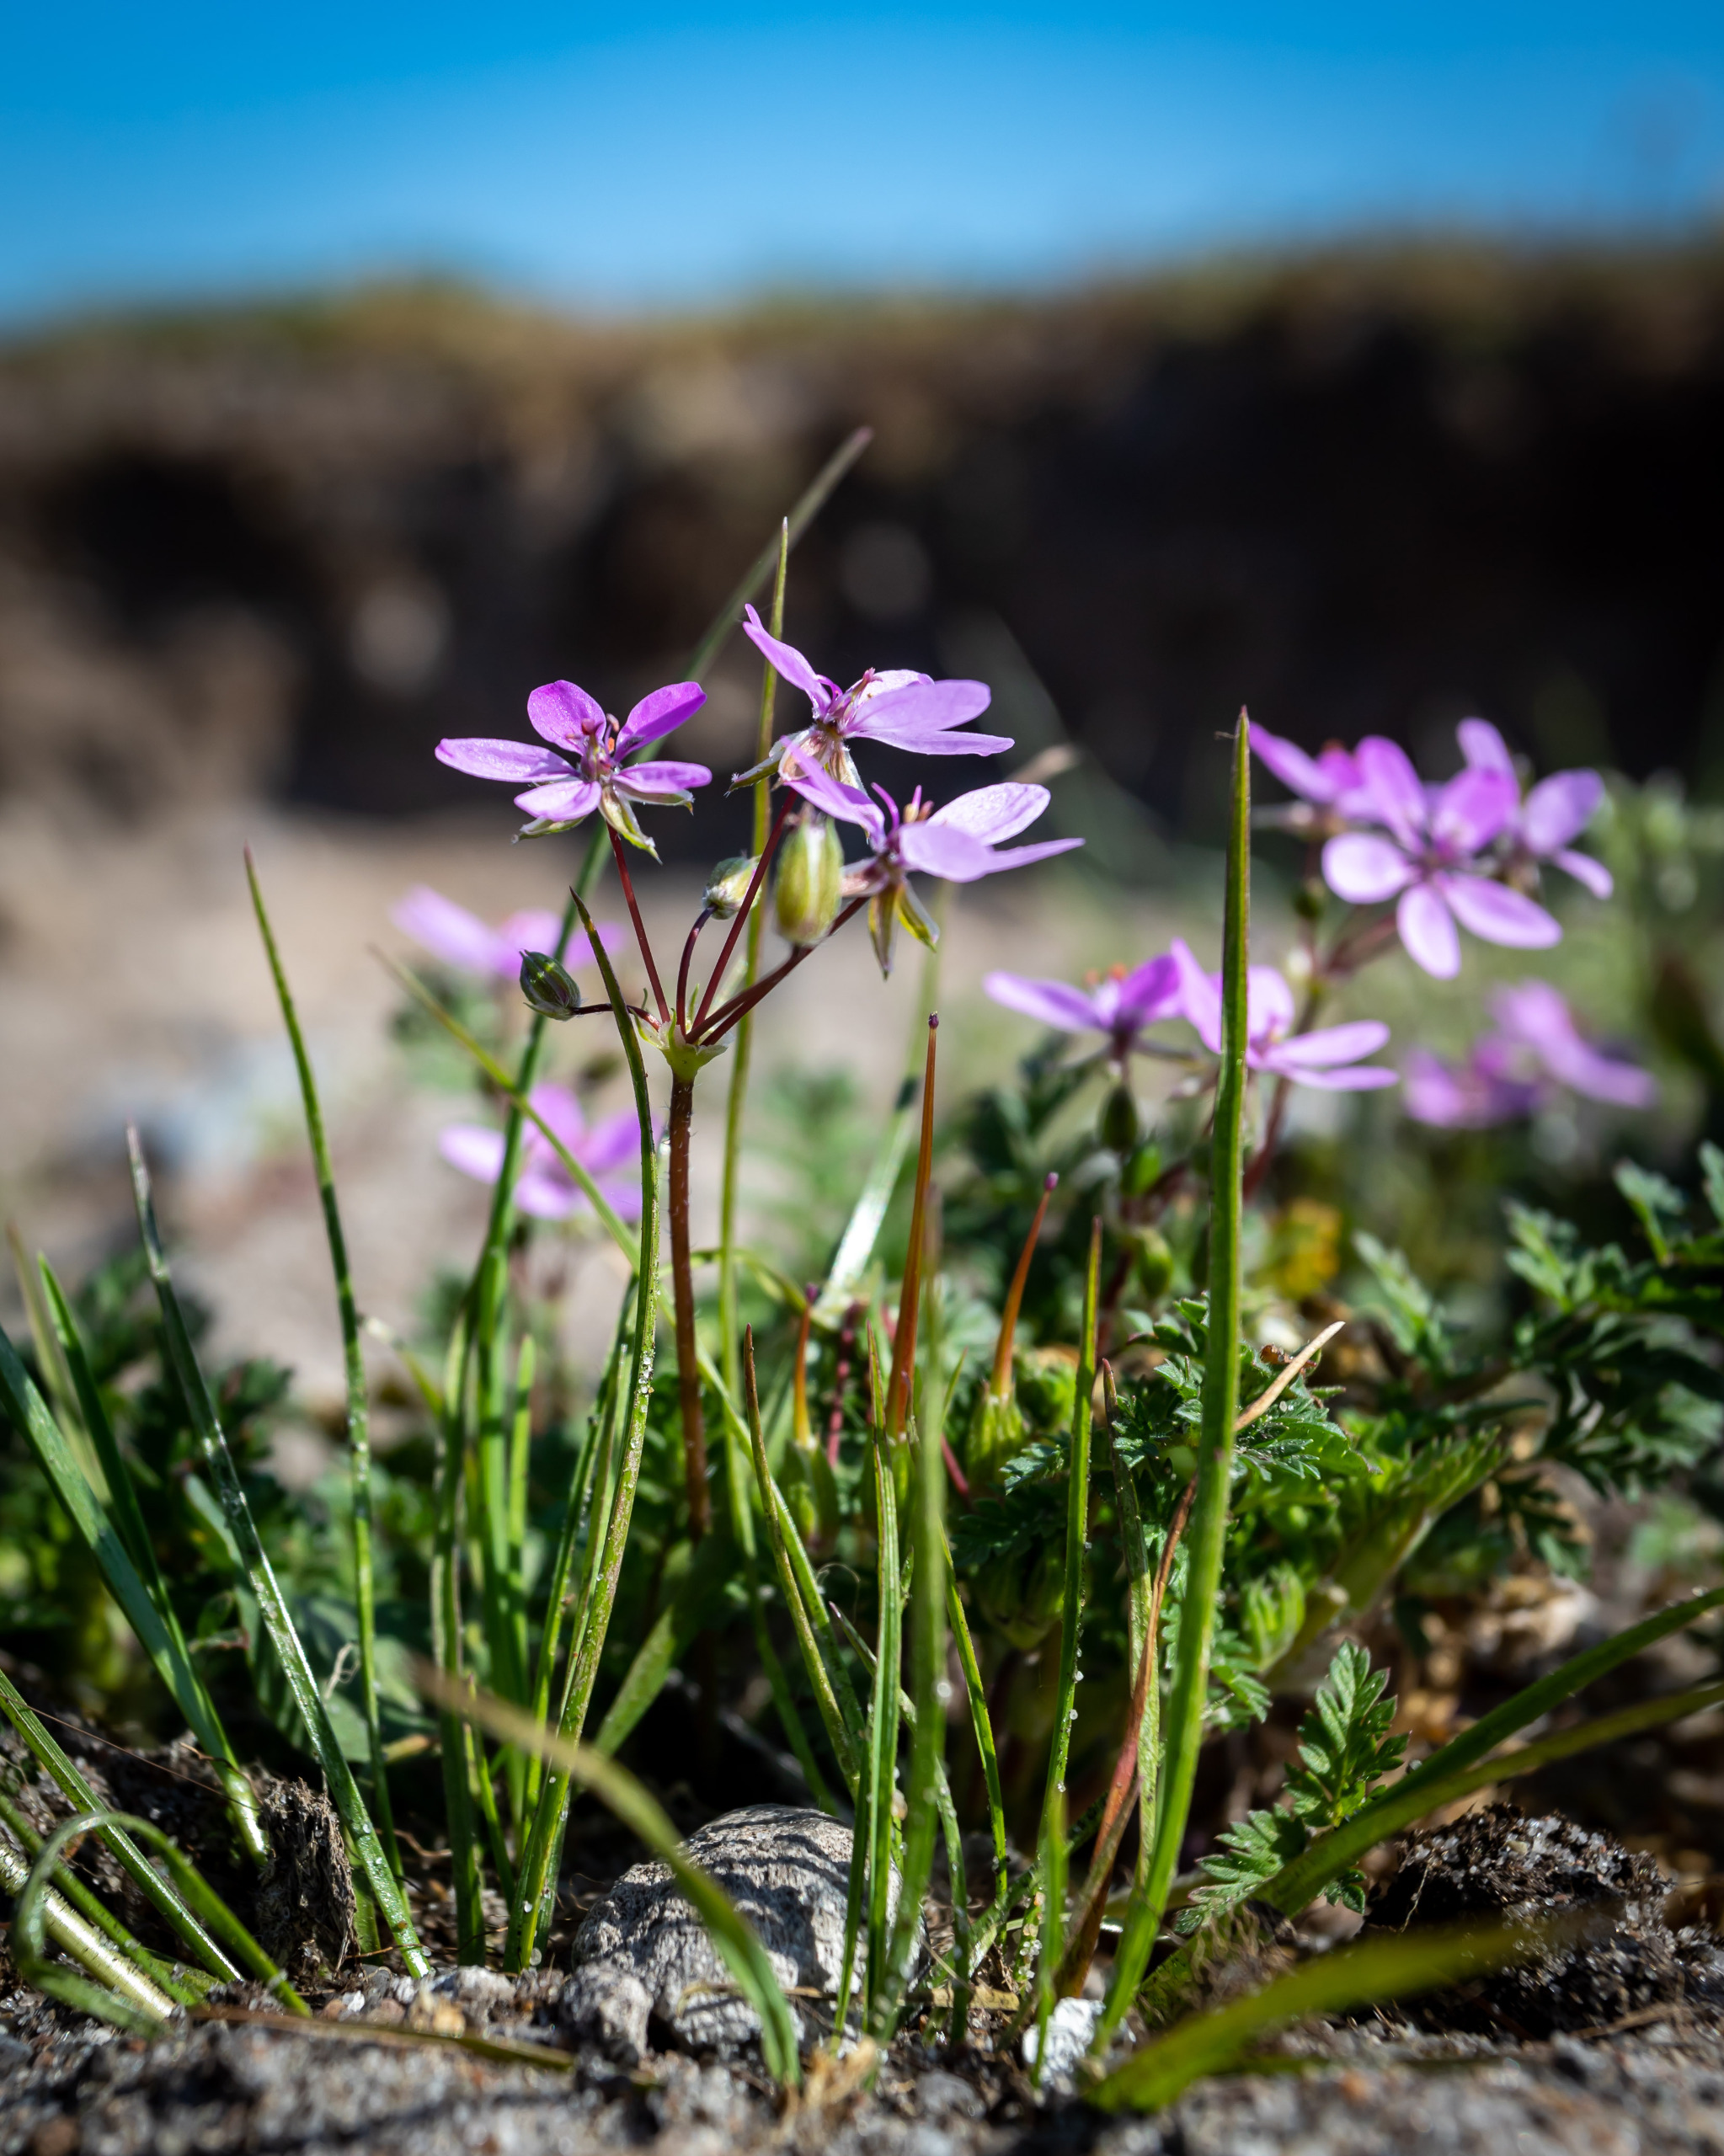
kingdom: Plantae
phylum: Tracheophyta
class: Magnoliopsida
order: Geraniales
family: Geraniaceae
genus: Erodium
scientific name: Erodium cicutarium
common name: Hejrenæb
